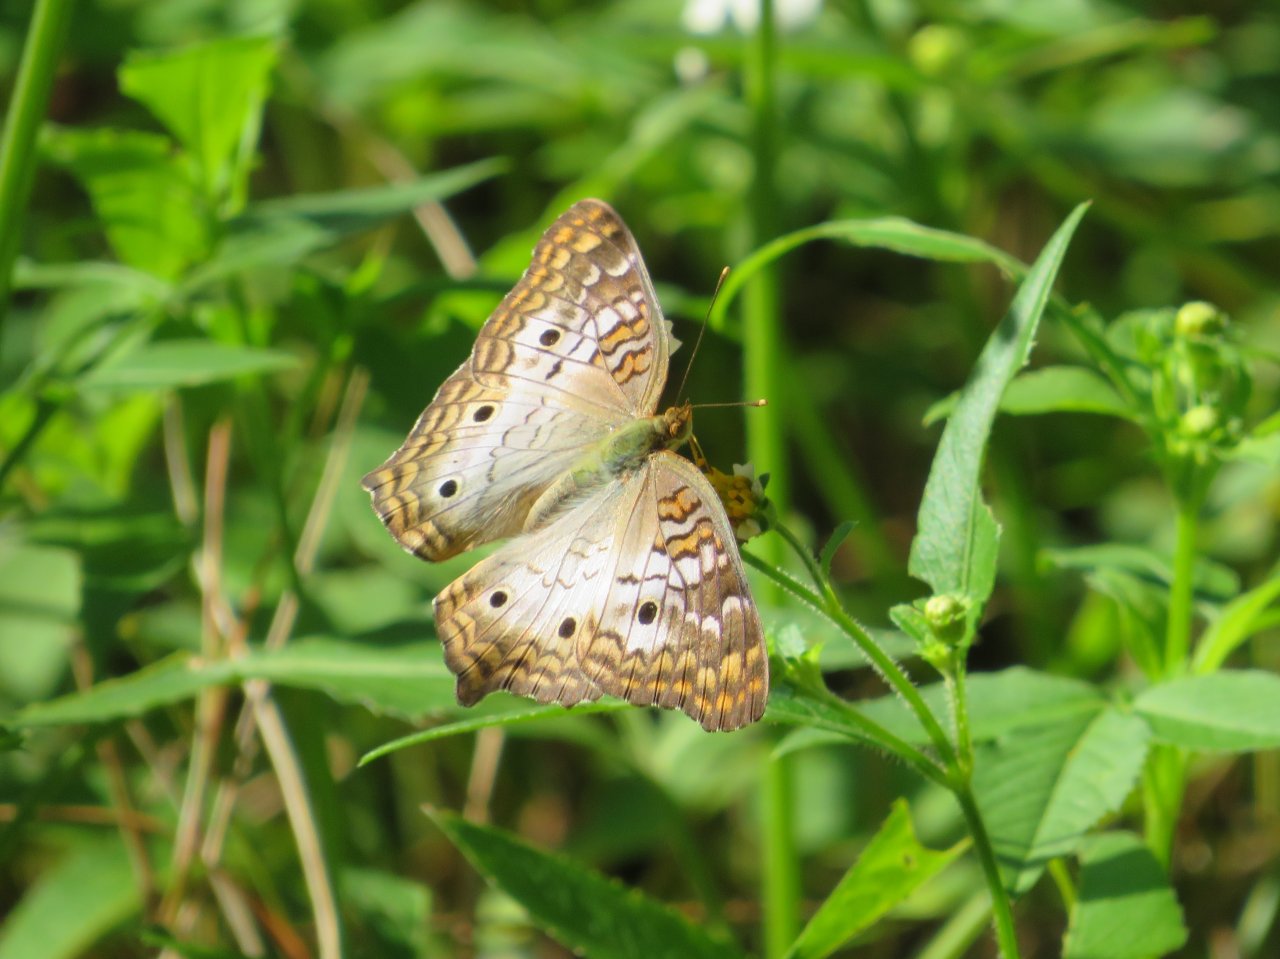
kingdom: Animalia
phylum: Arthropoda
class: Insecta
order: Lepidoptera
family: Nymphalidae
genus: Anartia
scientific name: Anartia jatrophae
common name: White Peacock
